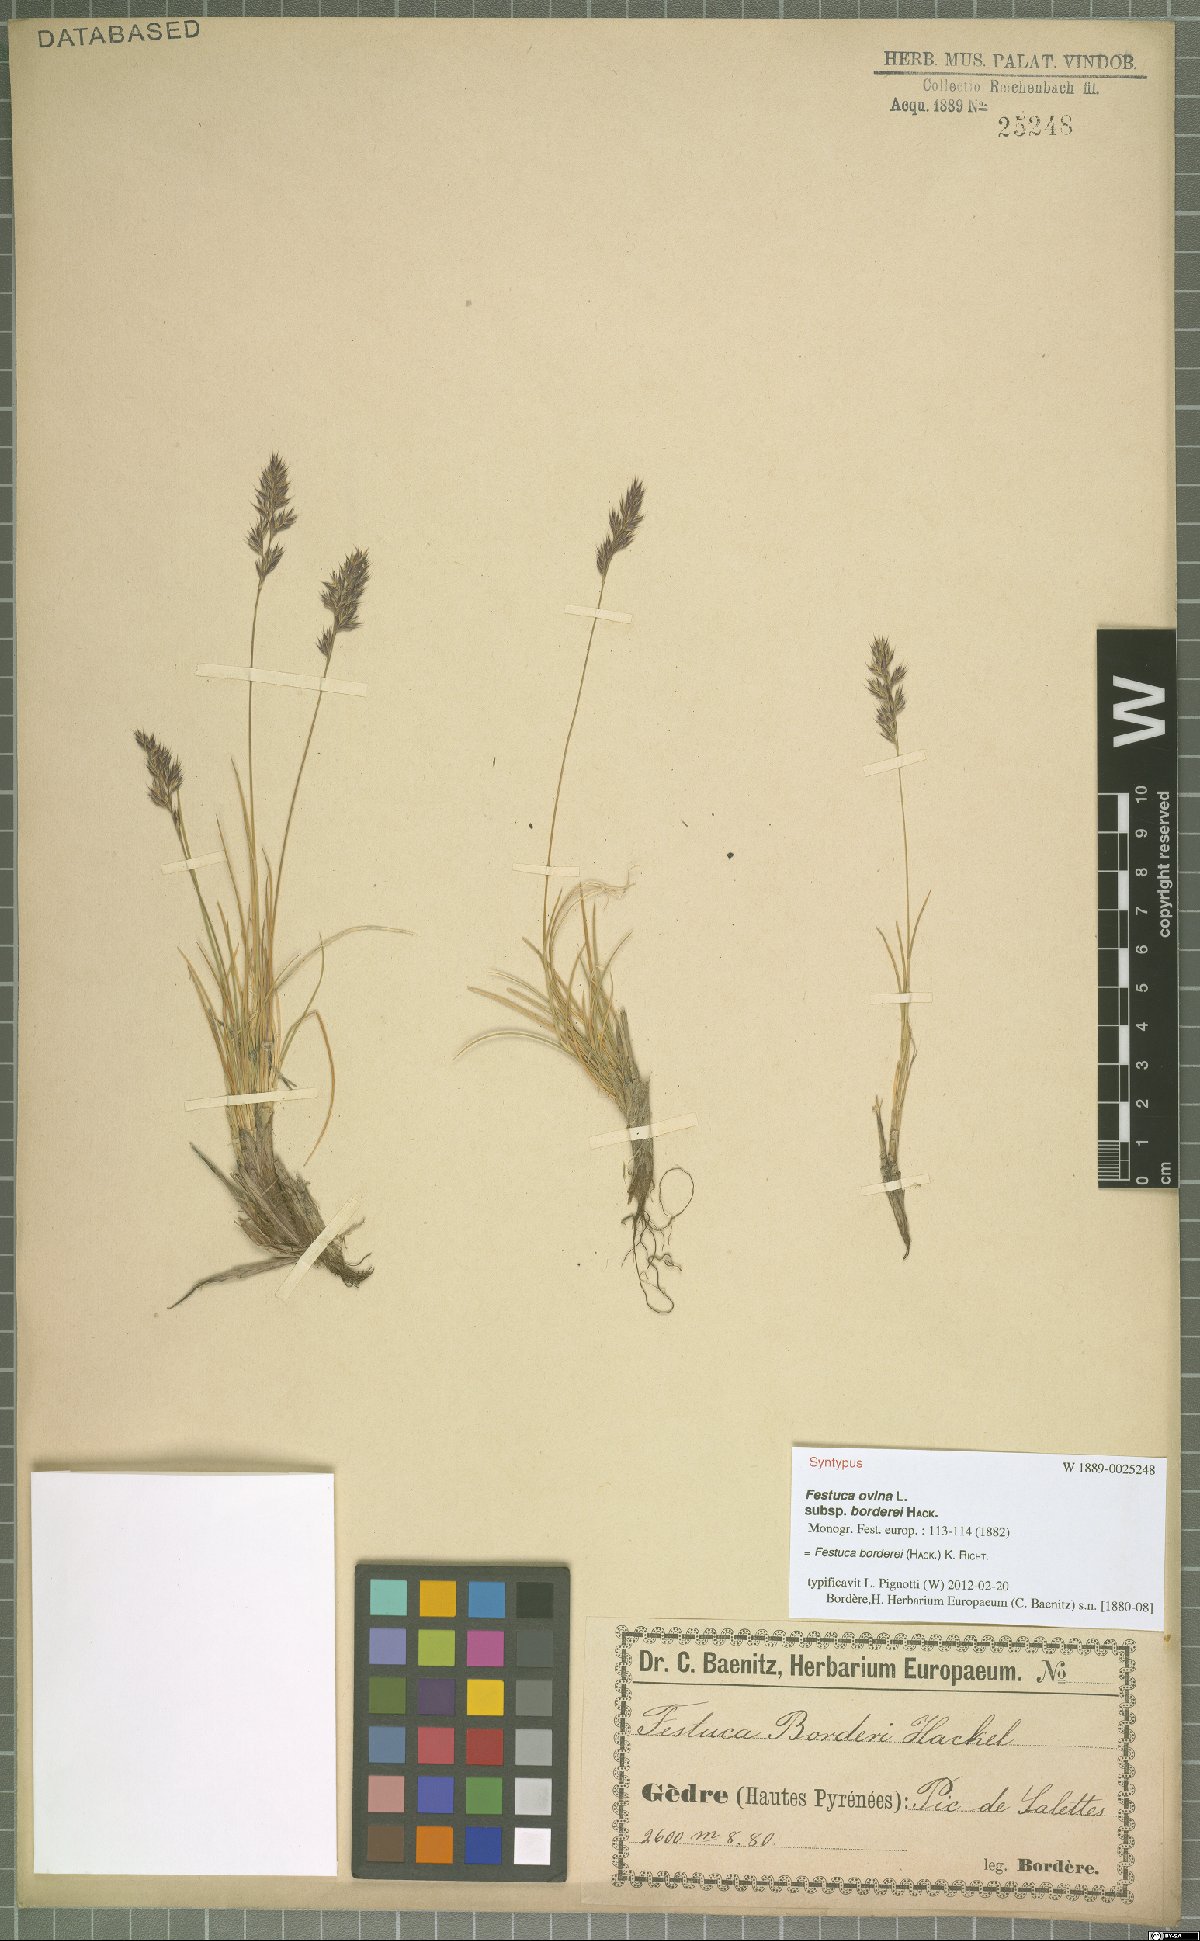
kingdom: Plantae
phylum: Tracheophyta
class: Liliopsida
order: Poales
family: Poaceae
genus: Festuca
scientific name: Festuca borderii
